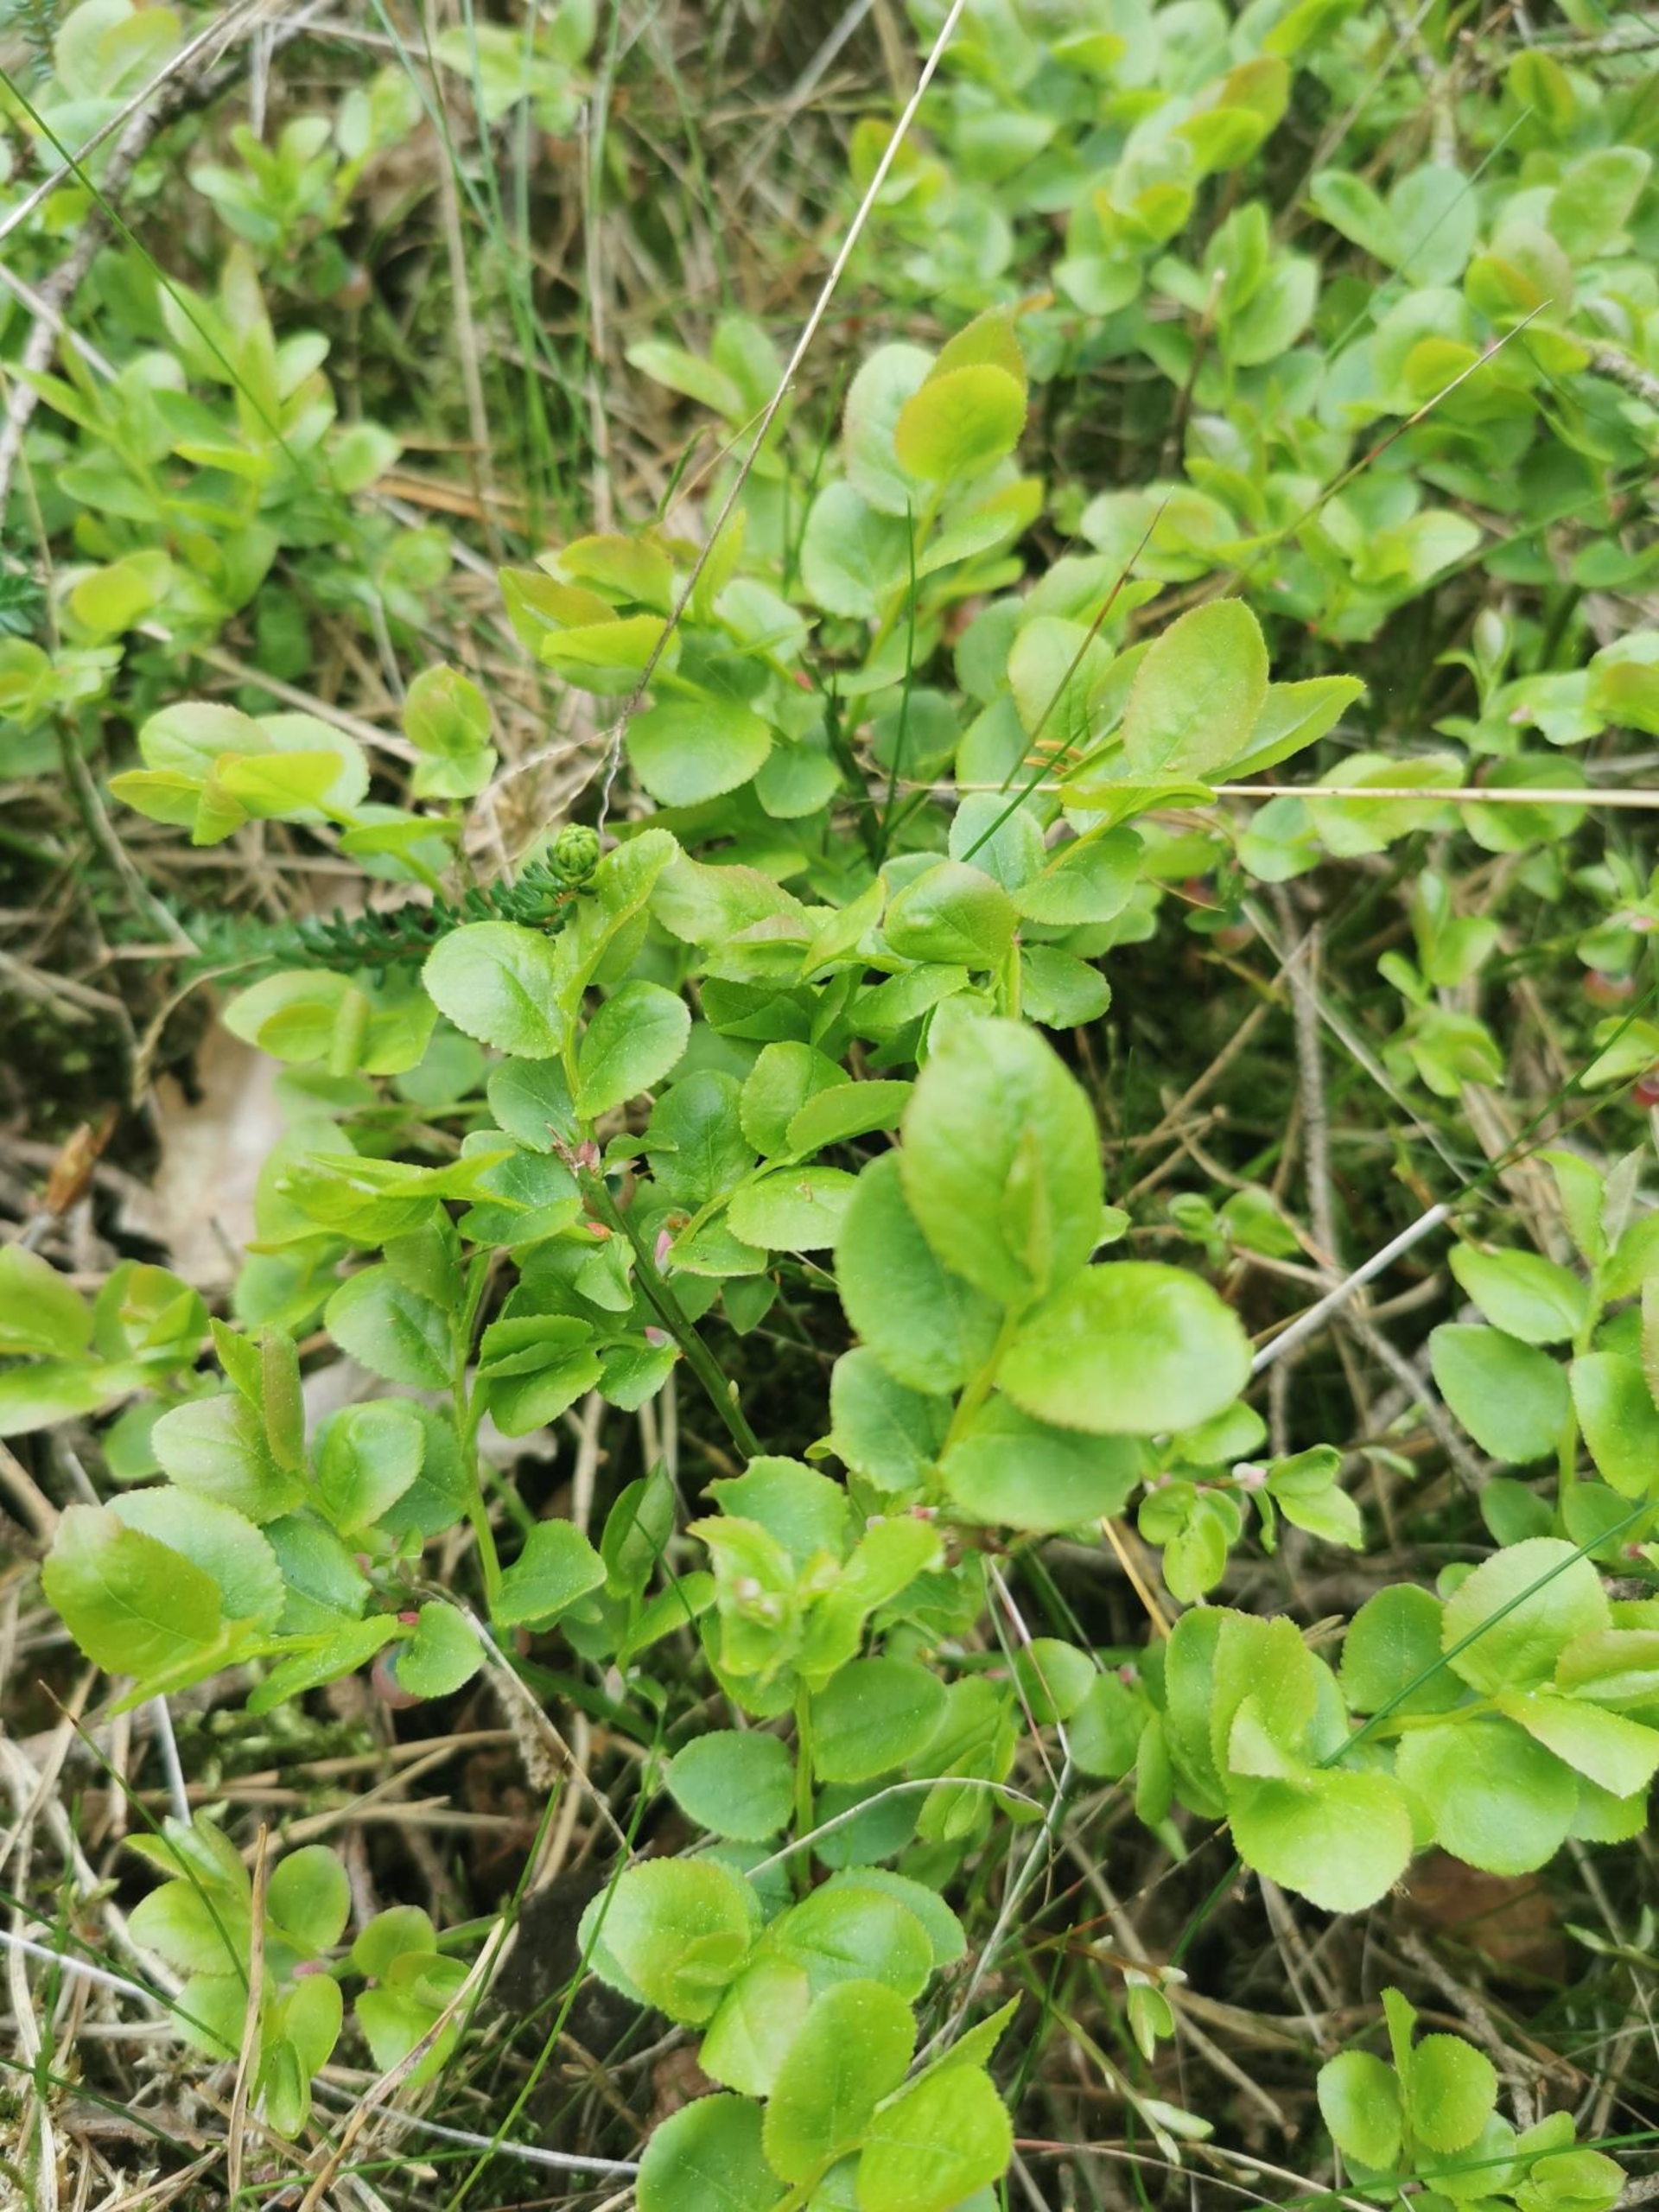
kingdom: Plantae
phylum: Tracheophyta
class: Magnoliopsida
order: Ericales
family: Ericaceae
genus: Vaccinium
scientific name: Vaccinium myrtillus
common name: Blåbær
